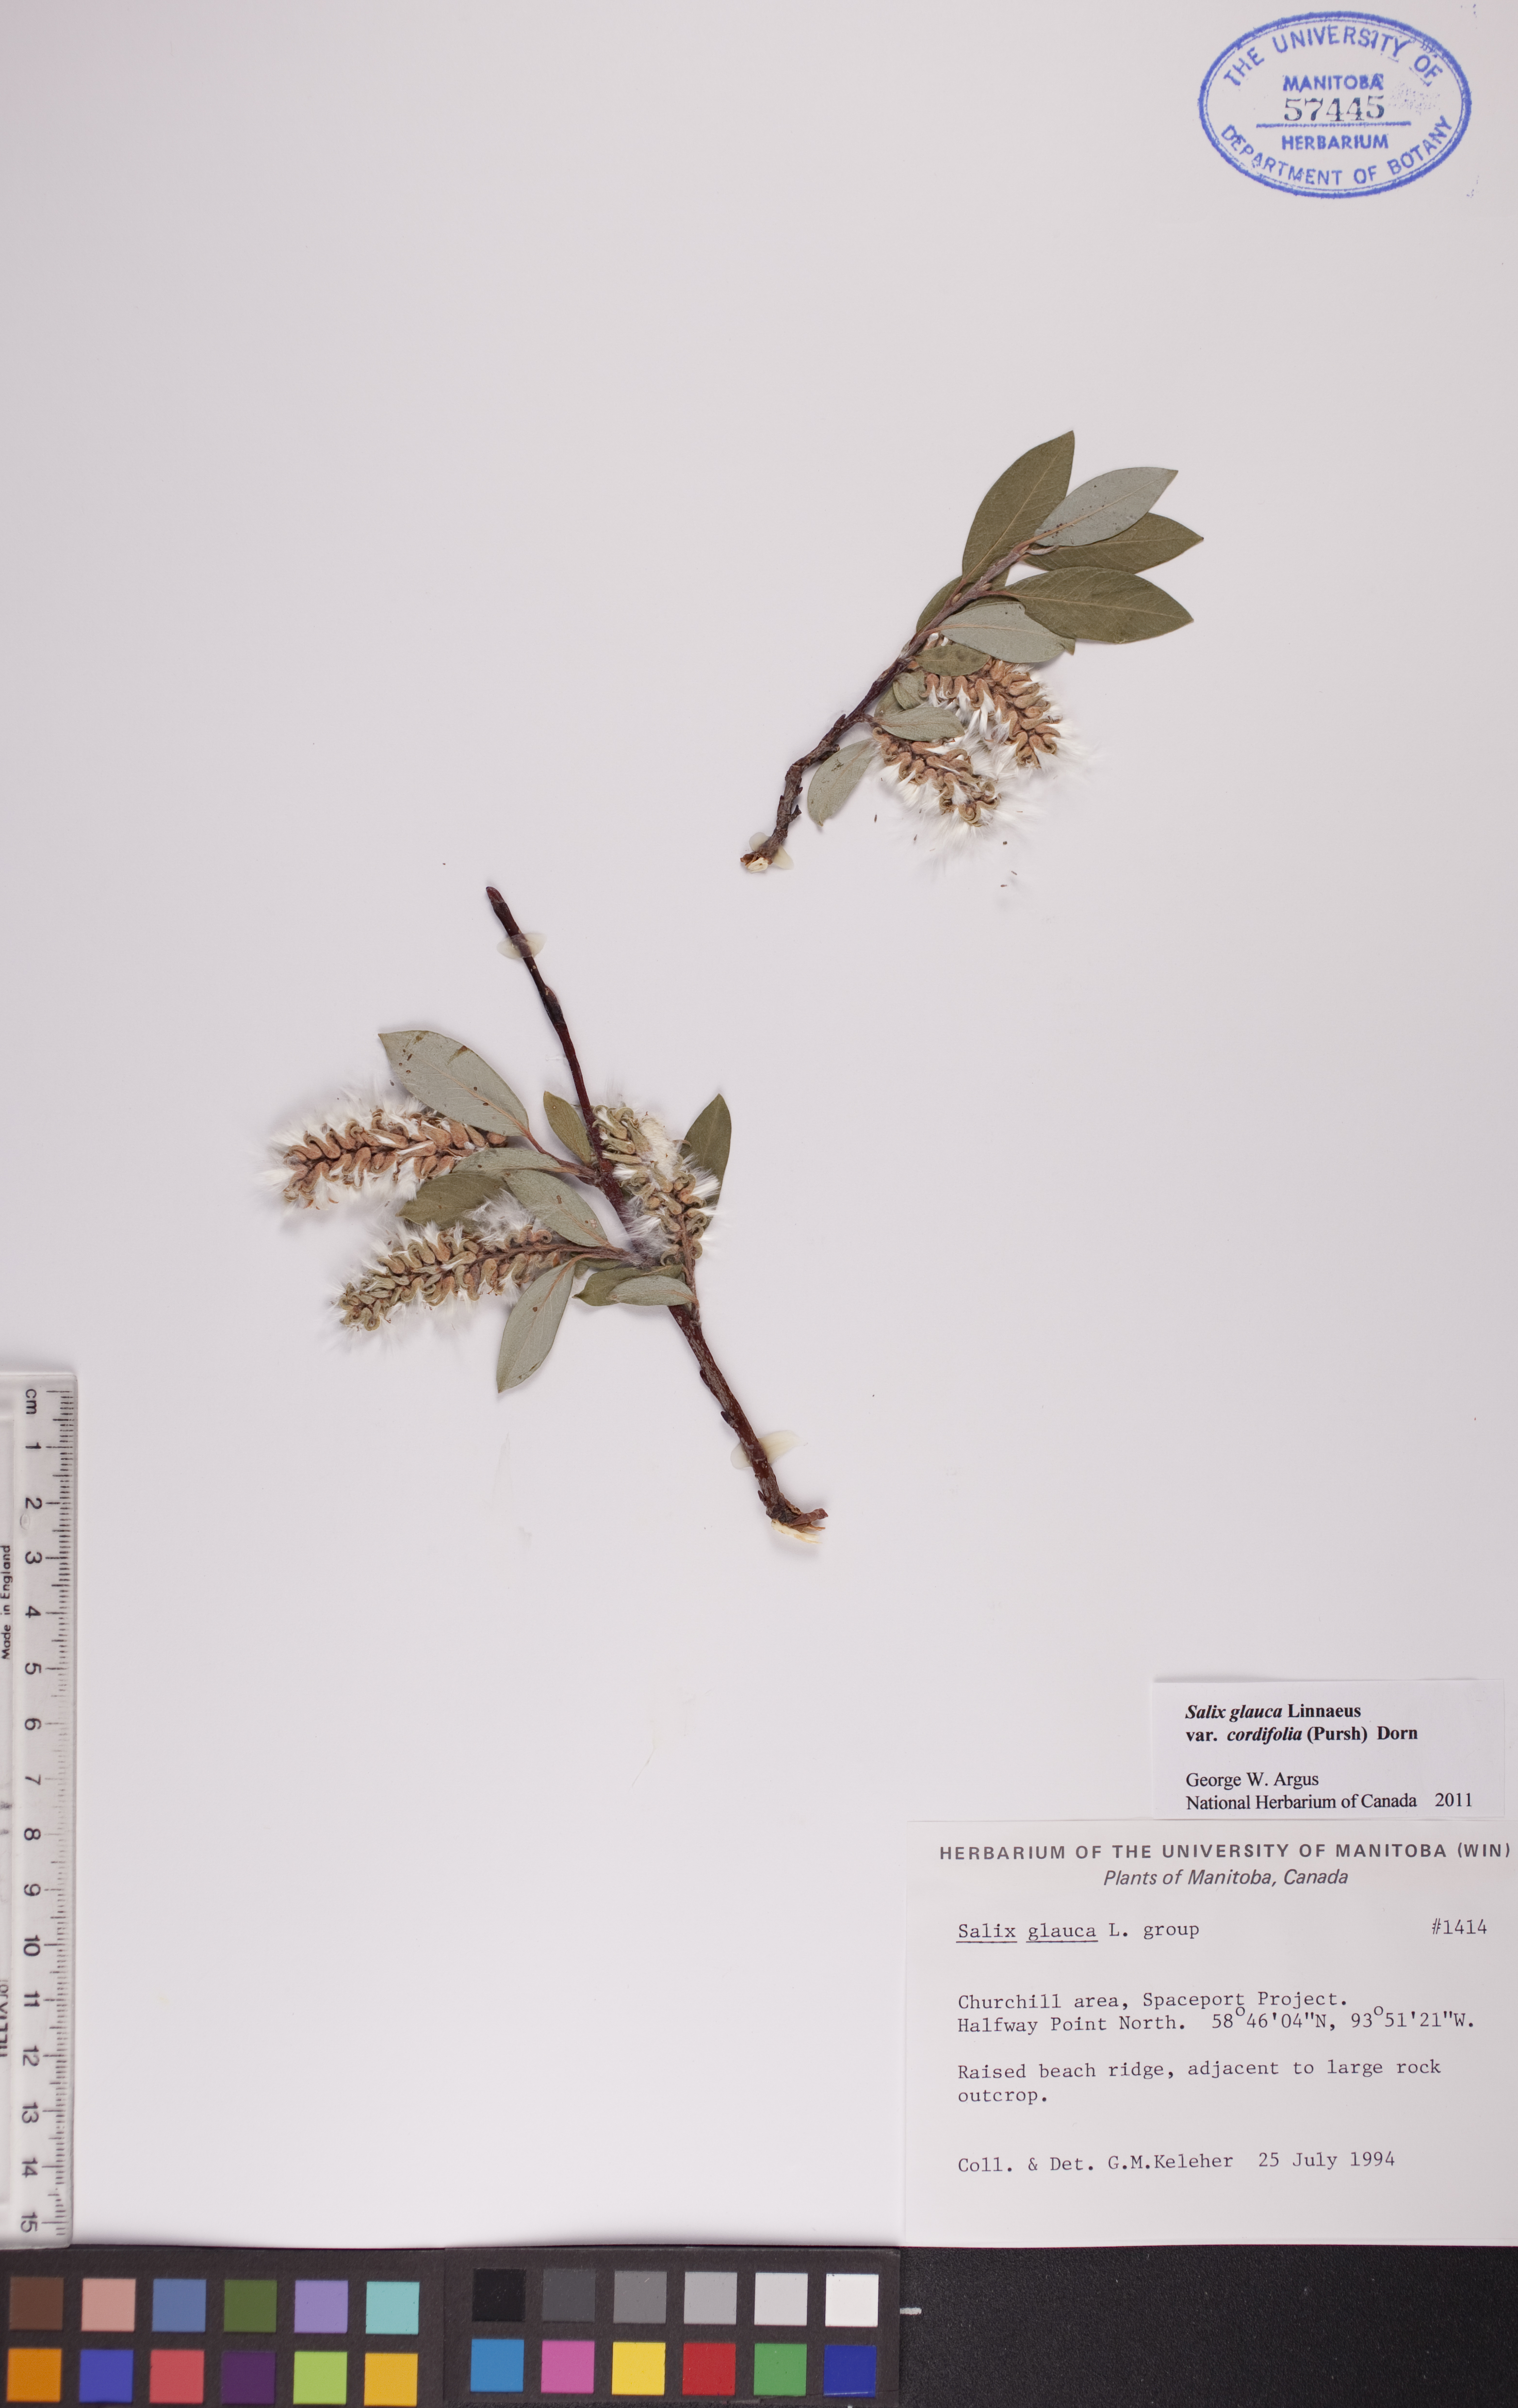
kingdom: Plantae
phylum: Tracheophyta
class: Magnoliopsida
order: Malpighiales
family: Salicaceae
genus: Salix
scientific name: Salix glauca
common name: Glaucous willow
